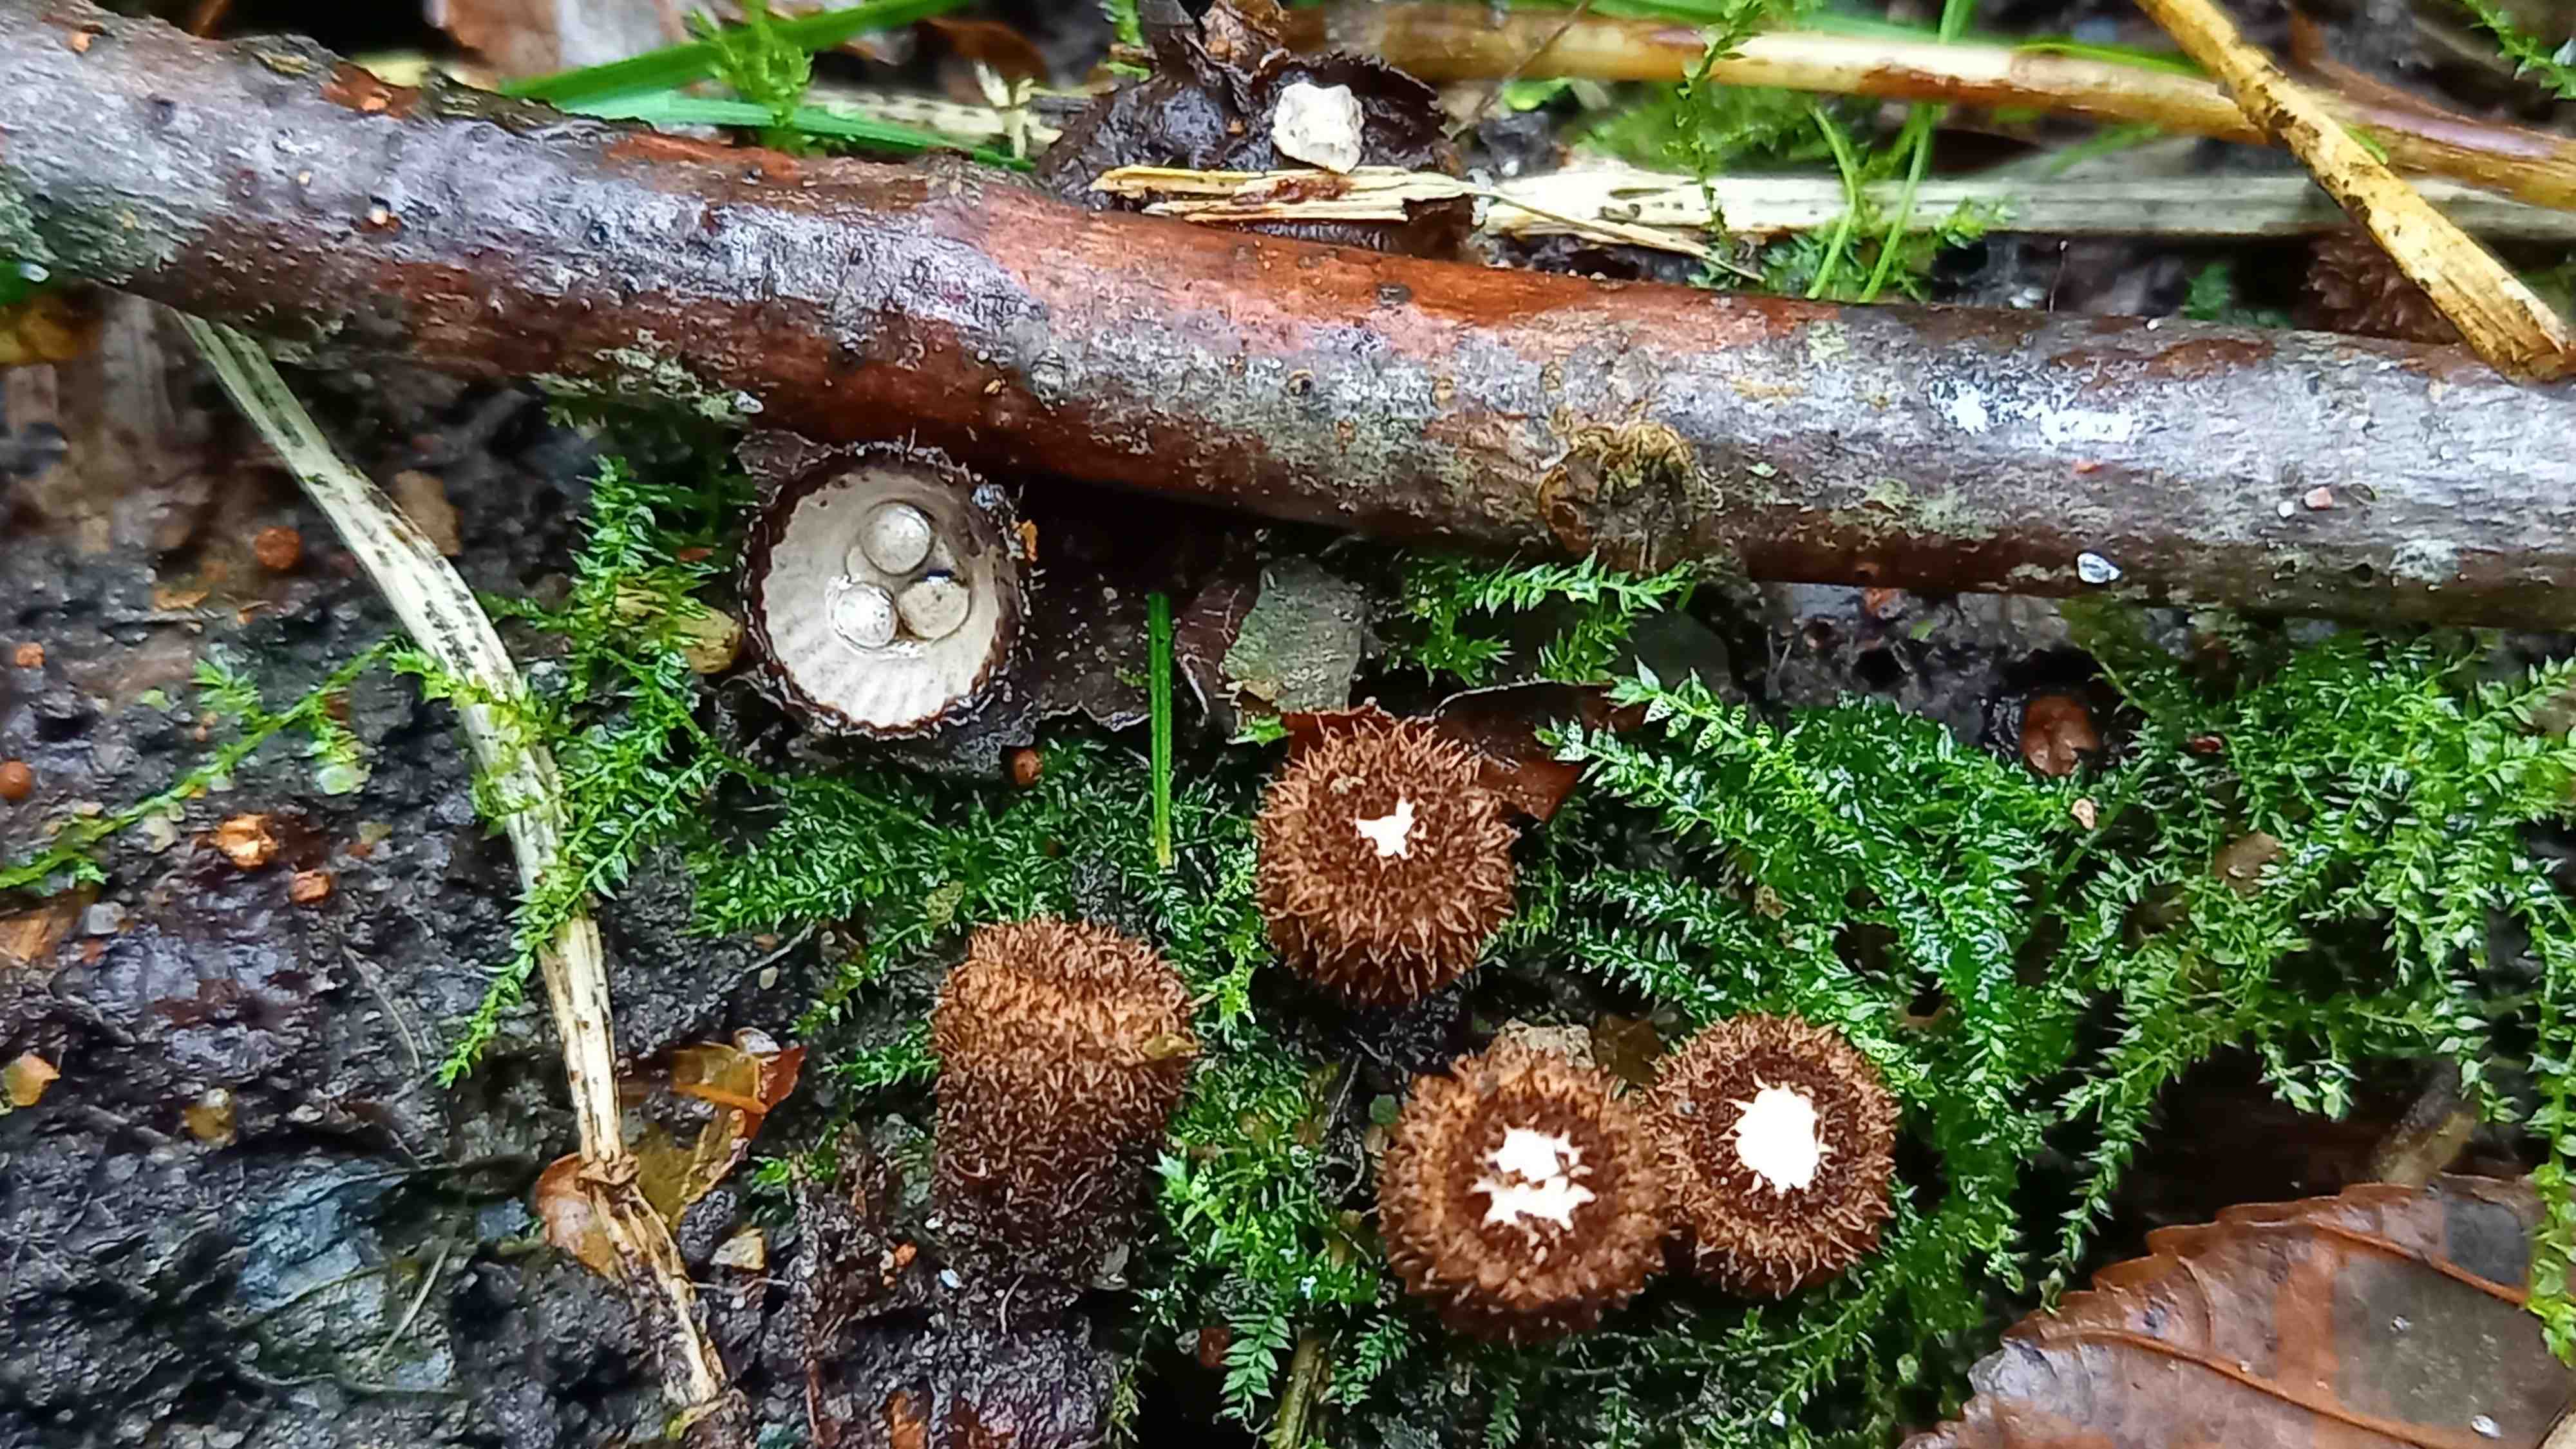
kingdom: Fungi
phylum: Basidiomycota
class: Agaricomycetes
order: Agaricales
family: Agaricaceae
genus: Cyathus
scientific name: Cyathus striatus
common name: stribet redesvamp
